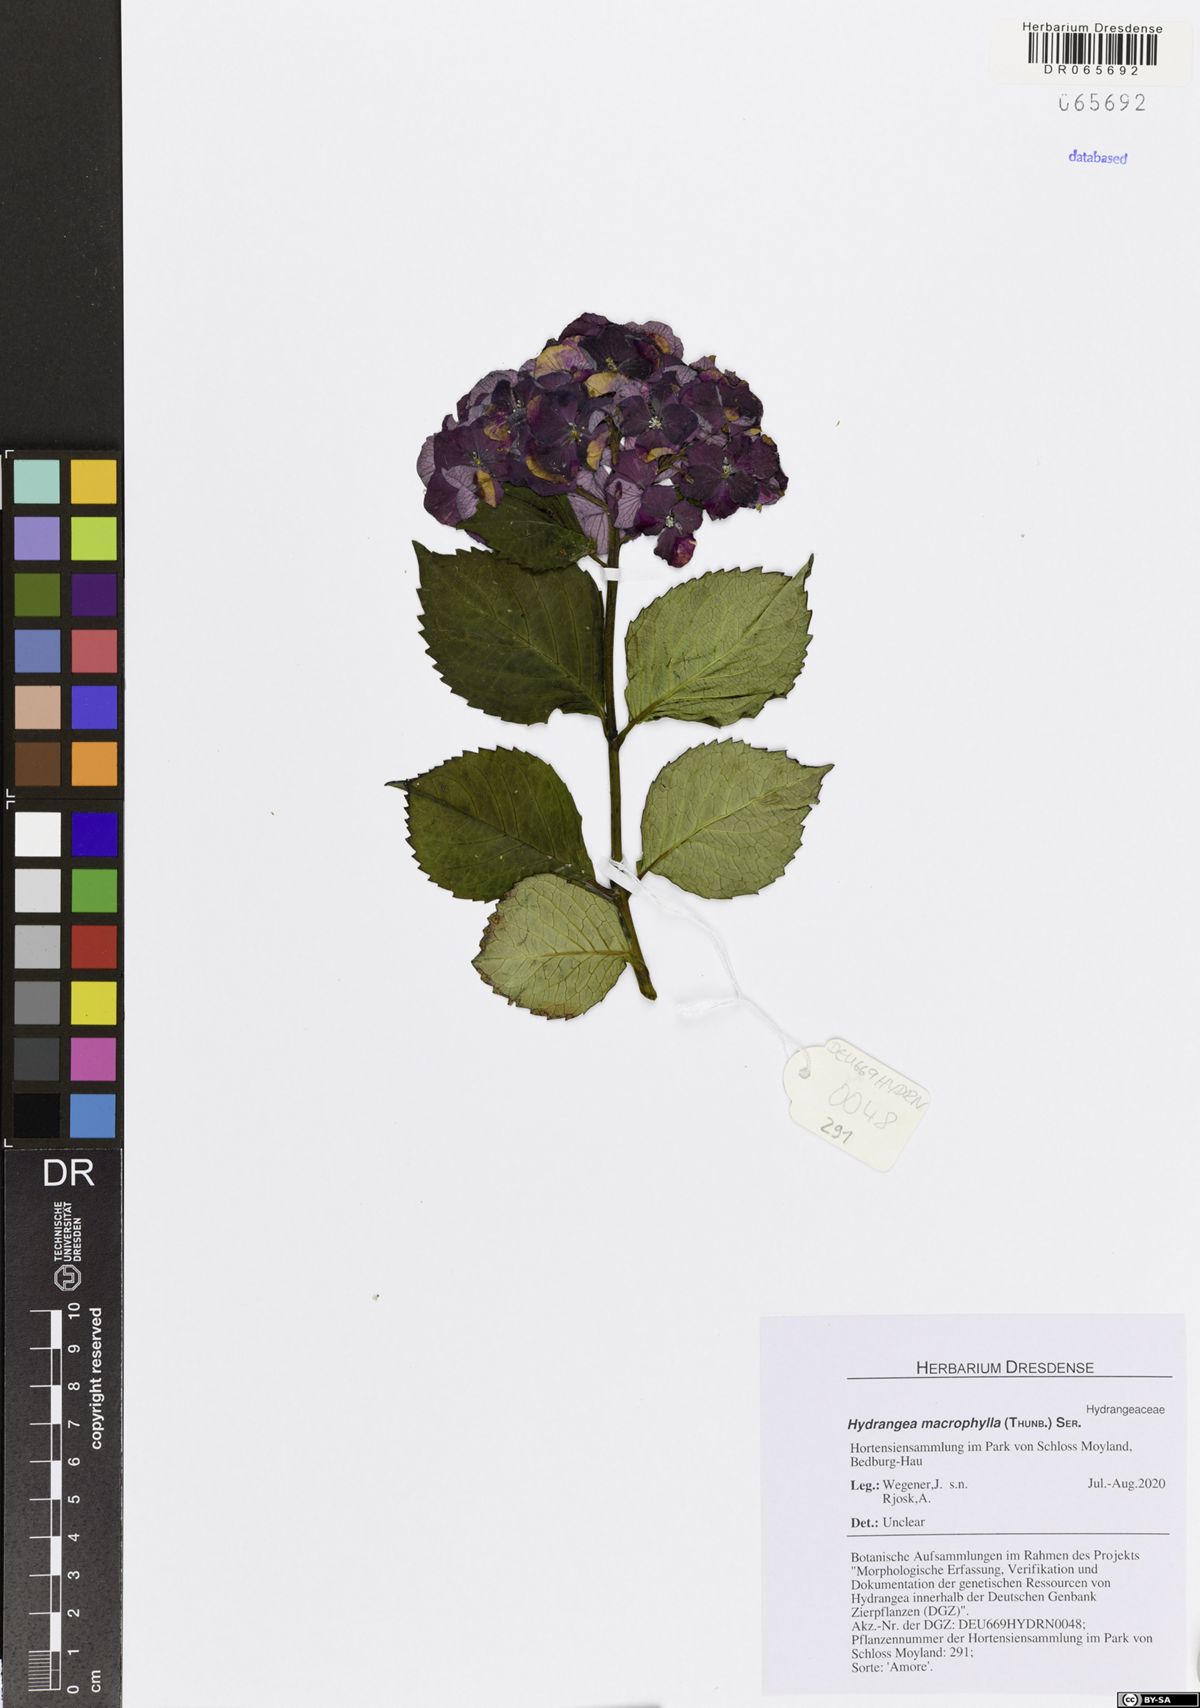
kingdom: Plantae
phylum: Tracheophyta
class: Magnoliopsida
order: Cornales
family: Hydrangeaceae
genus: Hydrangea
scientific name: Hydrangea macrophylla
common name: Hydrangea
